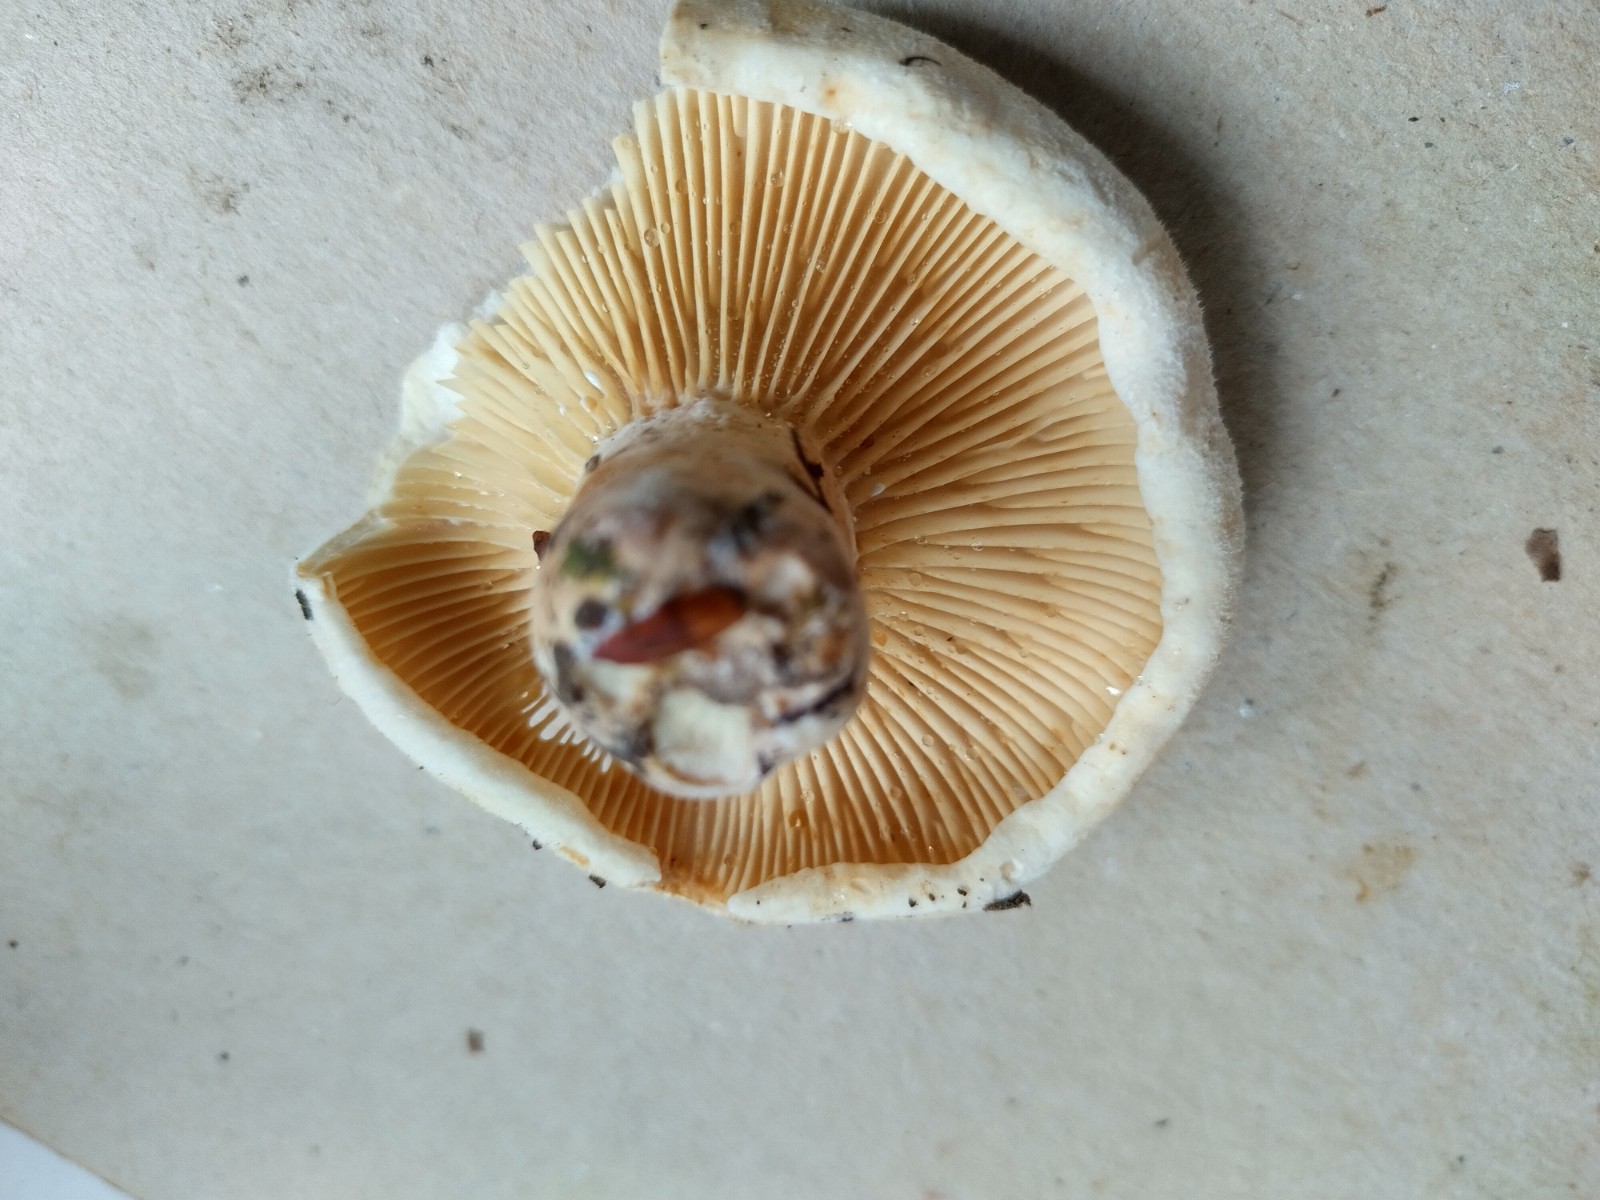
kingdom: Fungi
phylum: Basidiomycota
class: Agaricomycetes
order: Russulales
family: Russulaceae
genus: Lactifluus
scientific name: Lactifluus
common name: mælkehat
